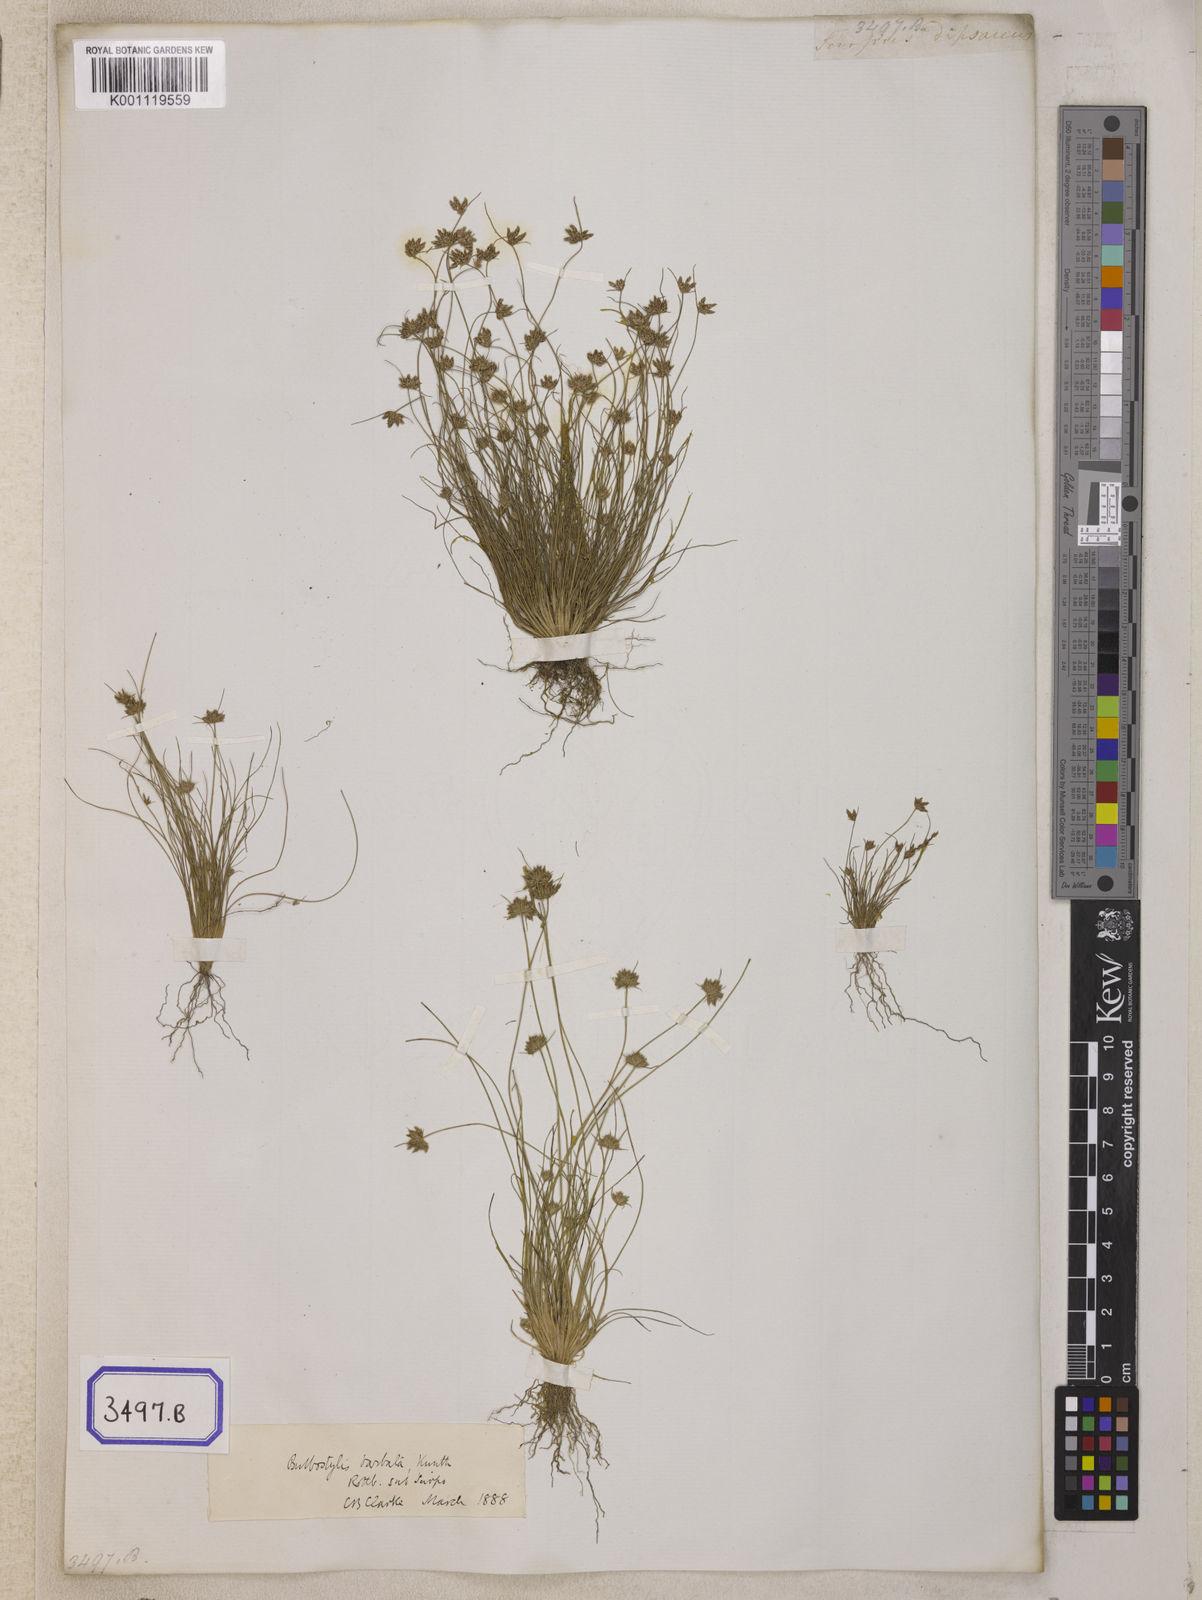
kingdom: Plantae
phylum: Tracheophyta
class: Liliopsida
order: Poales
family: Cyperaceae
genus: Isolepis
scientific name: Isolepis
